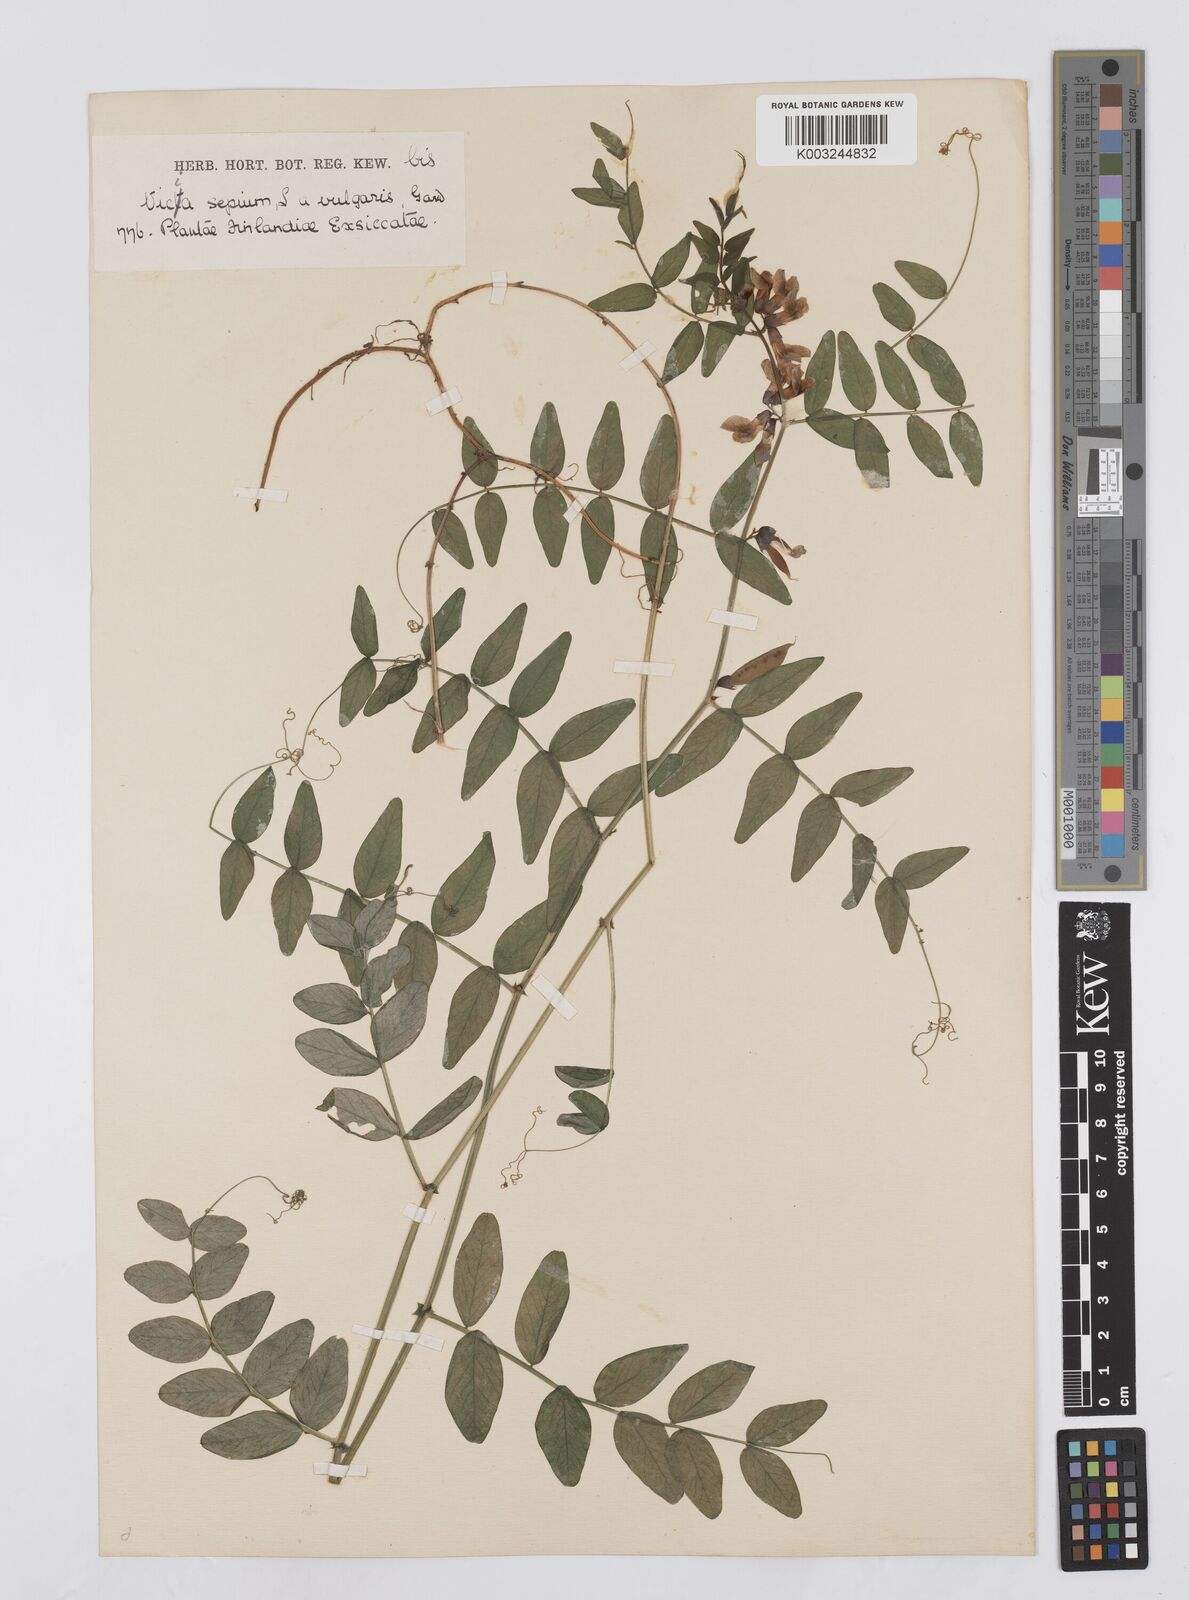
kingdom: Plantae
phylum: Tracheophyta
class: Magnoliopsida
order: Fabales
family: Fabaceae
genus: Vicia
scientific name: Vicia sepium
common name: Bush vetch
